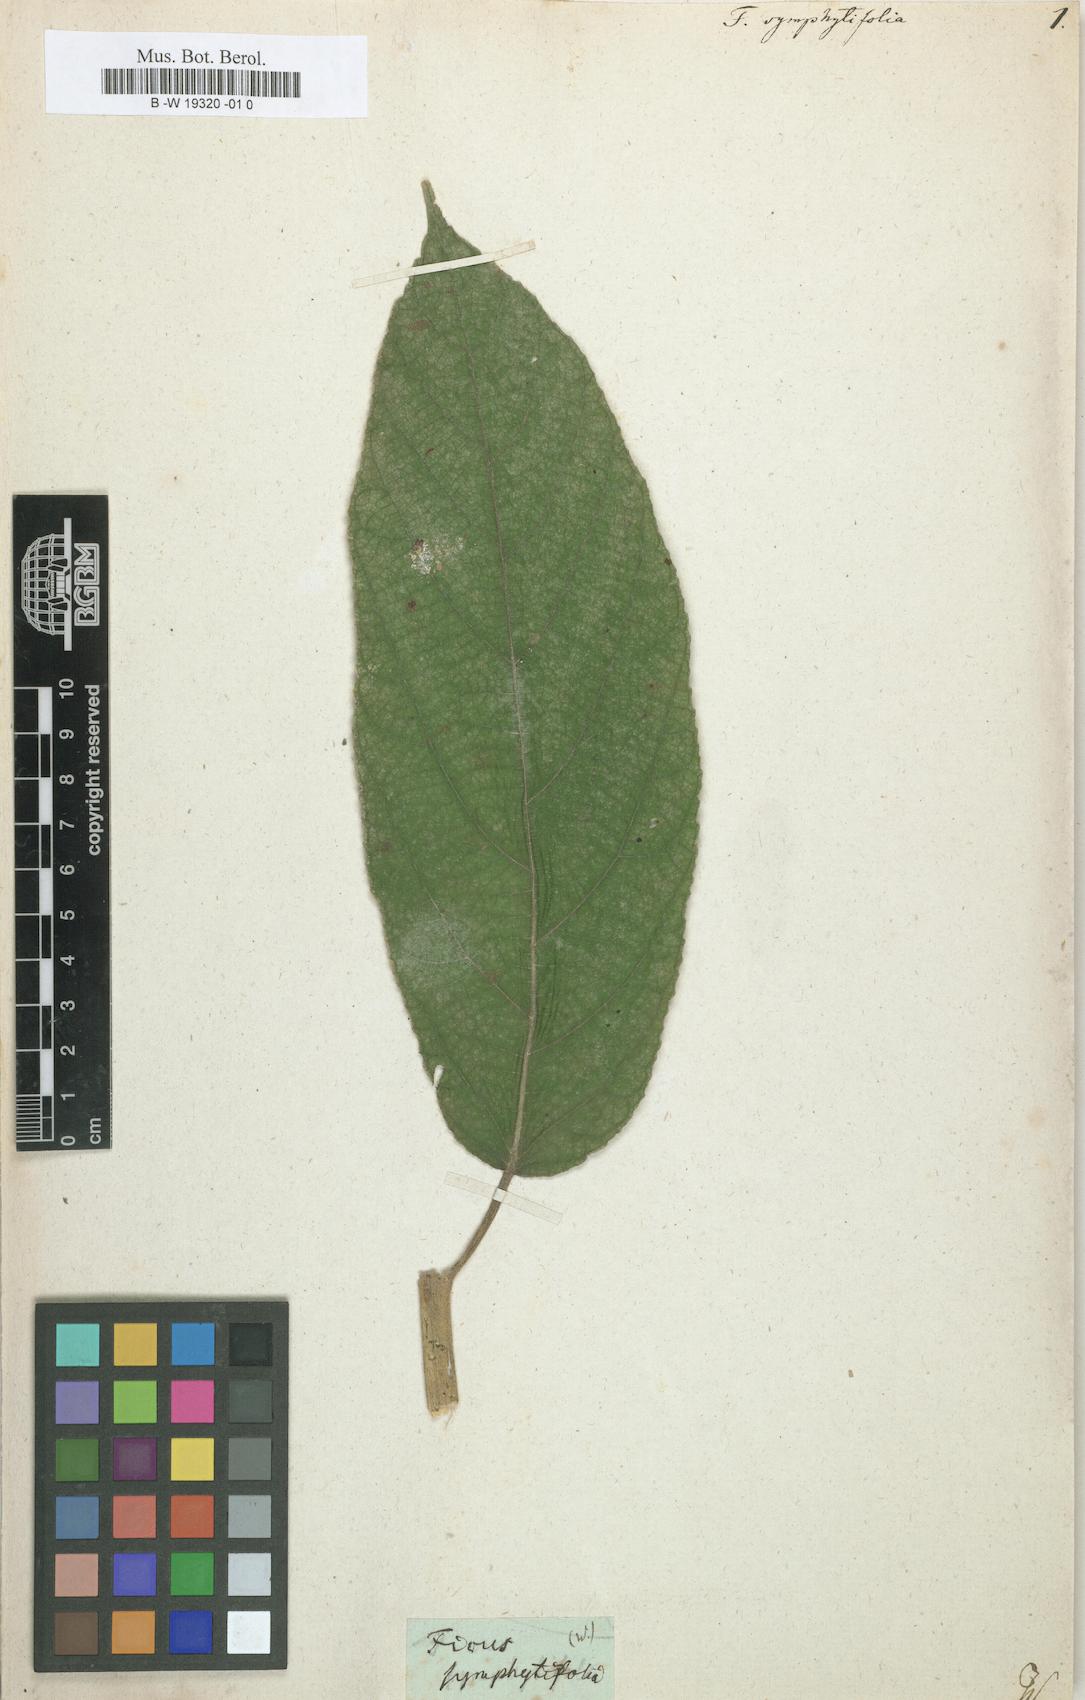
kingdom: Plantae
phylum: Tracheophyta
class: Magnoliopsida
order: Rosales
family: Moraceae
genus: Ficus
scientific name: Ficus hispida
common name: Hairy fig
